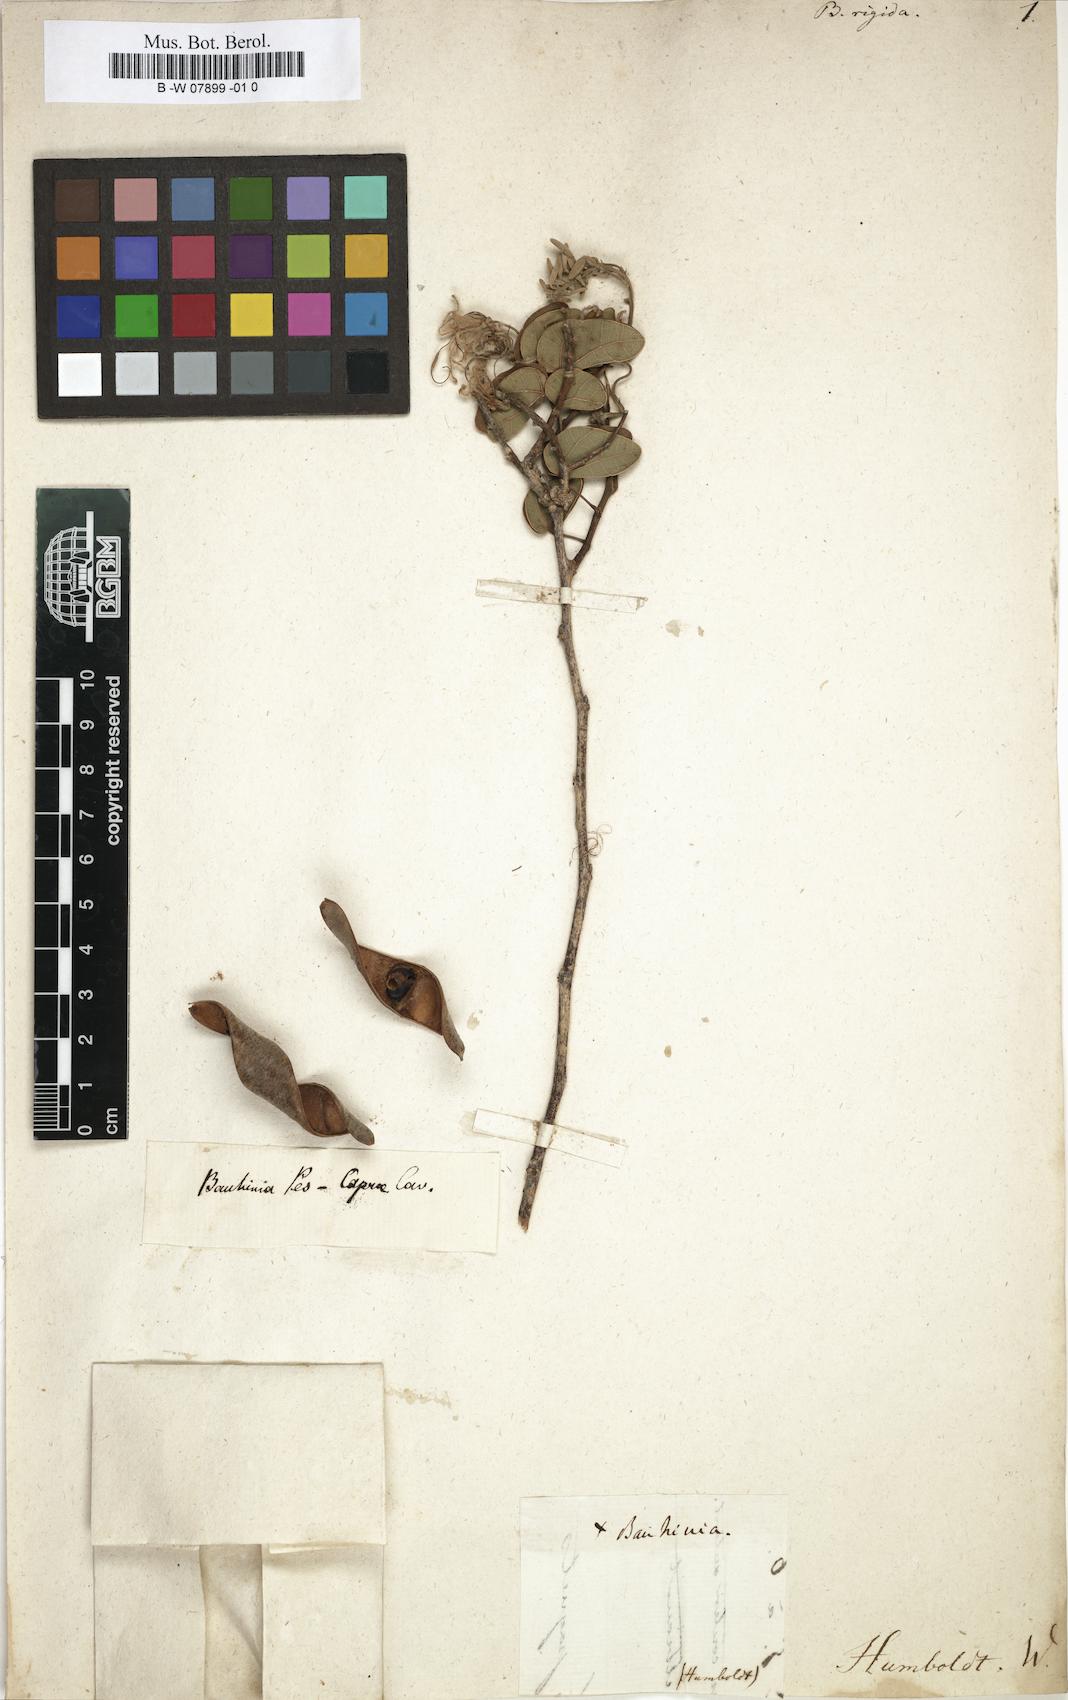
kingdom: Plantae
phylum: Tracheophyta
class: Magnoliopsida
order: Fabales
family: Fabaceae
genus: Bauhinia
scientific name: Bauhinia
